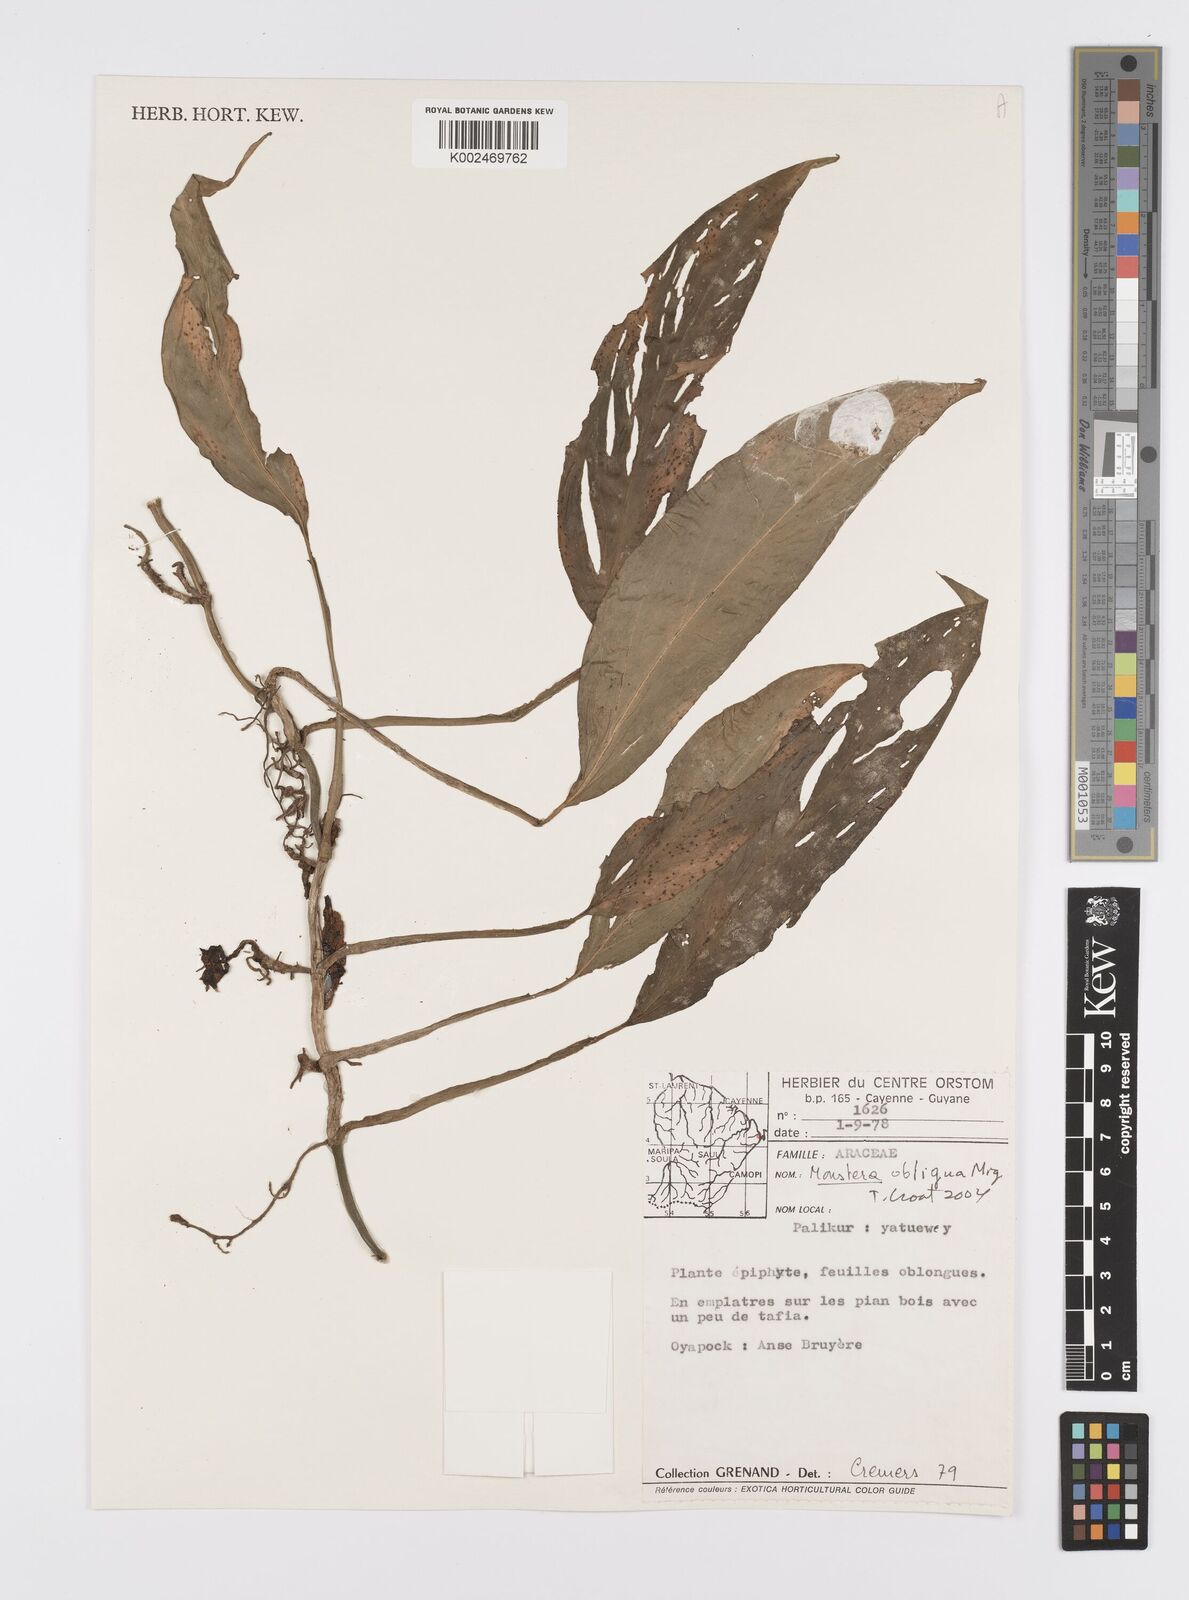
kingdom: Plantae
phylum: Tracheophyta
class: Liliopsida
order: Alismatales
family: Araceae
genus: Monstera
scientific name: Monstera obliqua
